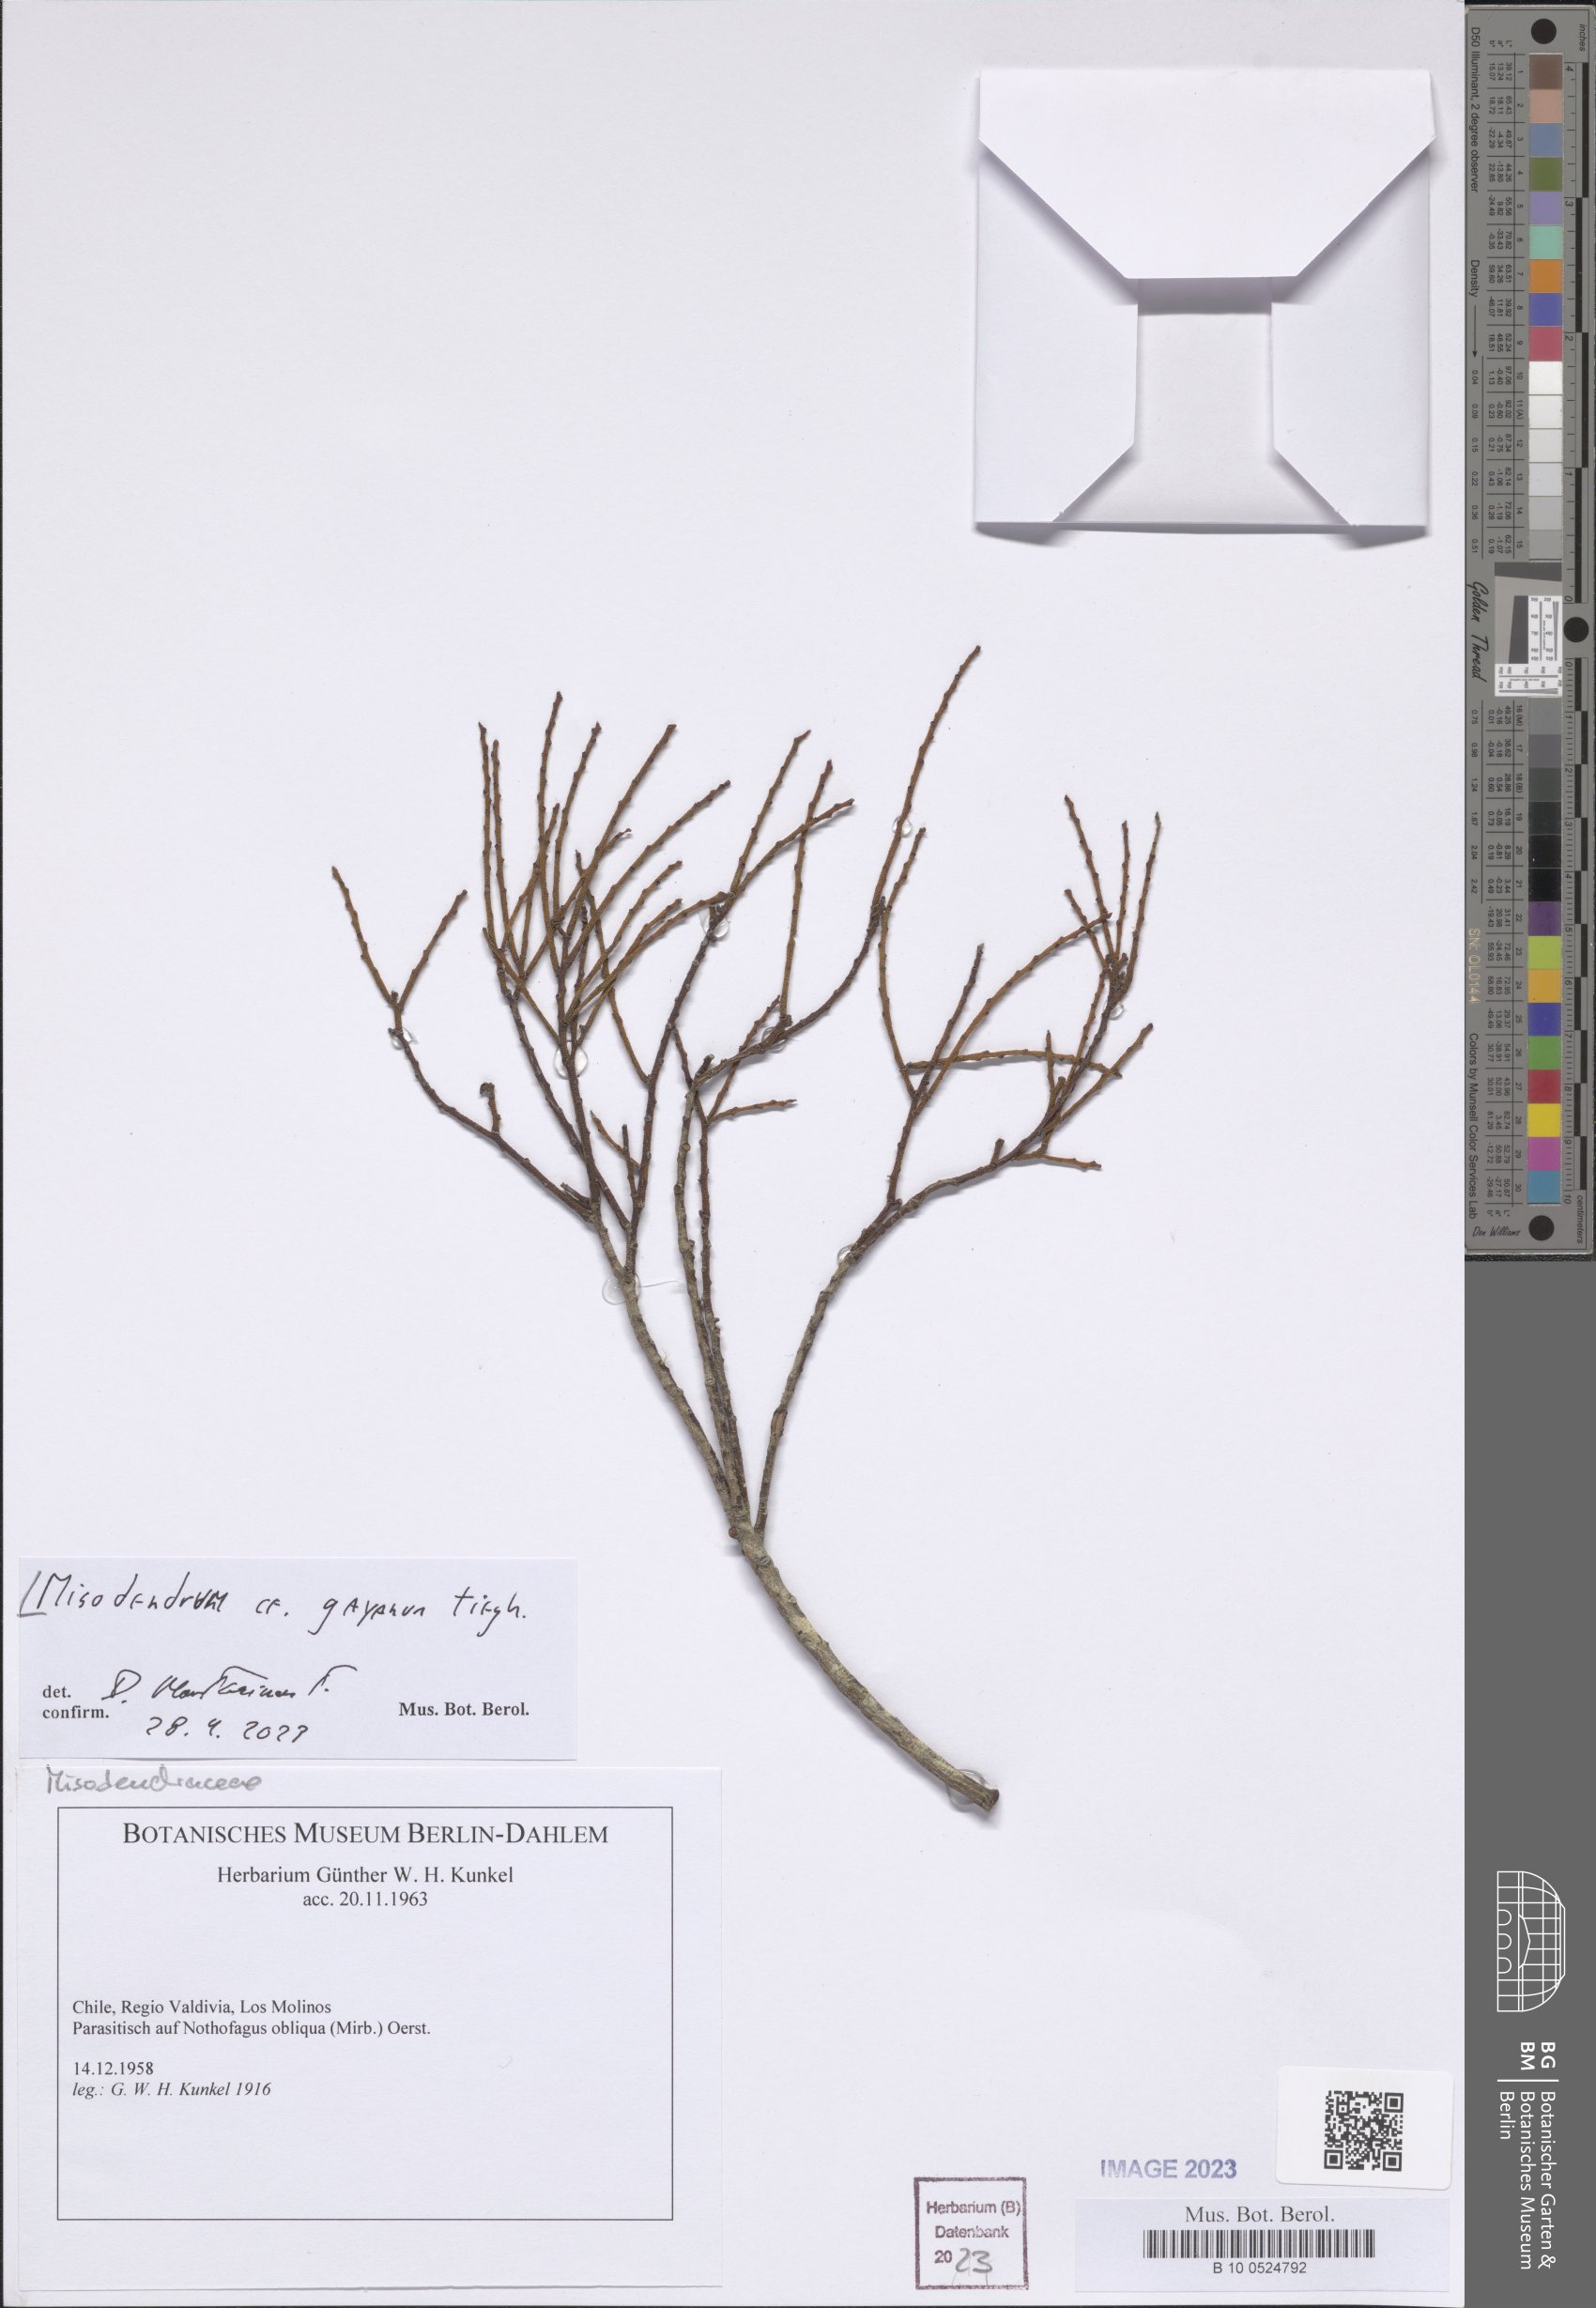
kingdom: Plantae
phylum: Tracheophyta
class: Magnoliopsida
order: Santalales
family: Misodendraceae
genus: Misodendrum
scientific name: Misodendrum gayanum
